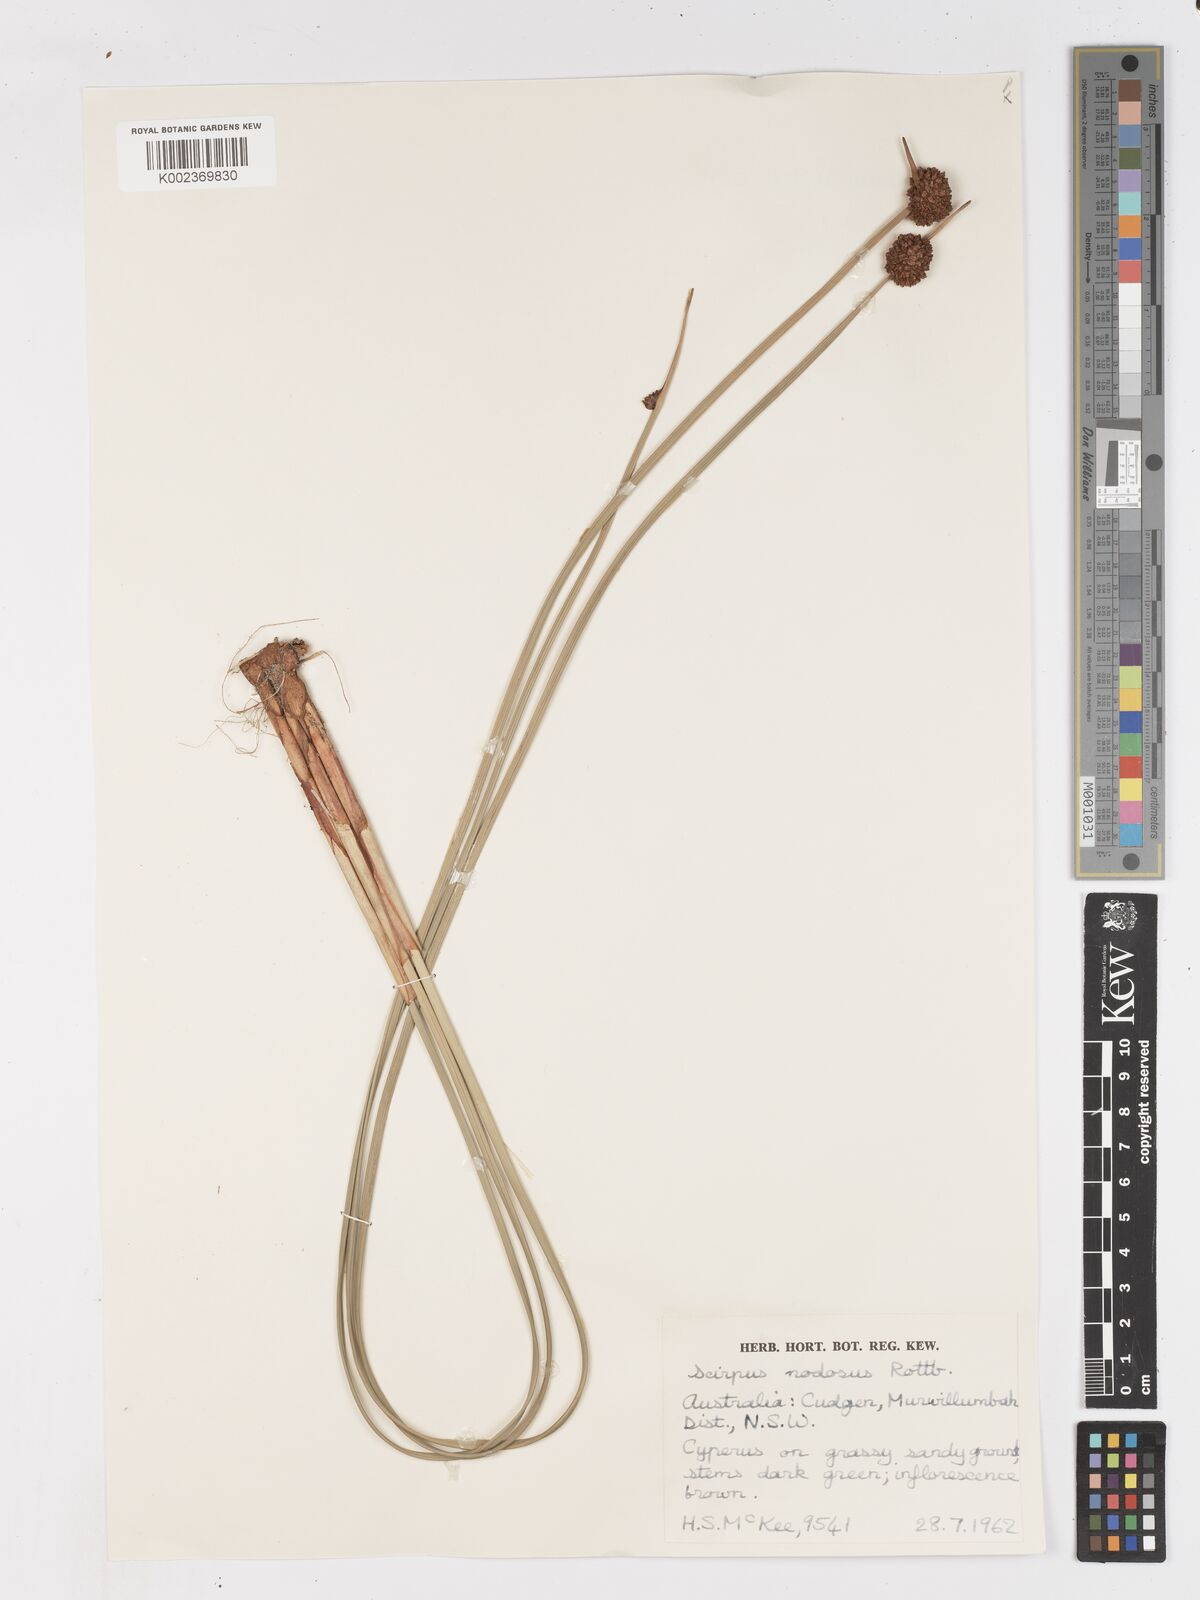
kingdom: Plantae
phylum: Tracheophyta
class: Liliopsida
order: Poales
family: Cyperaceae
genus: Ficinia
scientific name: Ficinia nodosa
